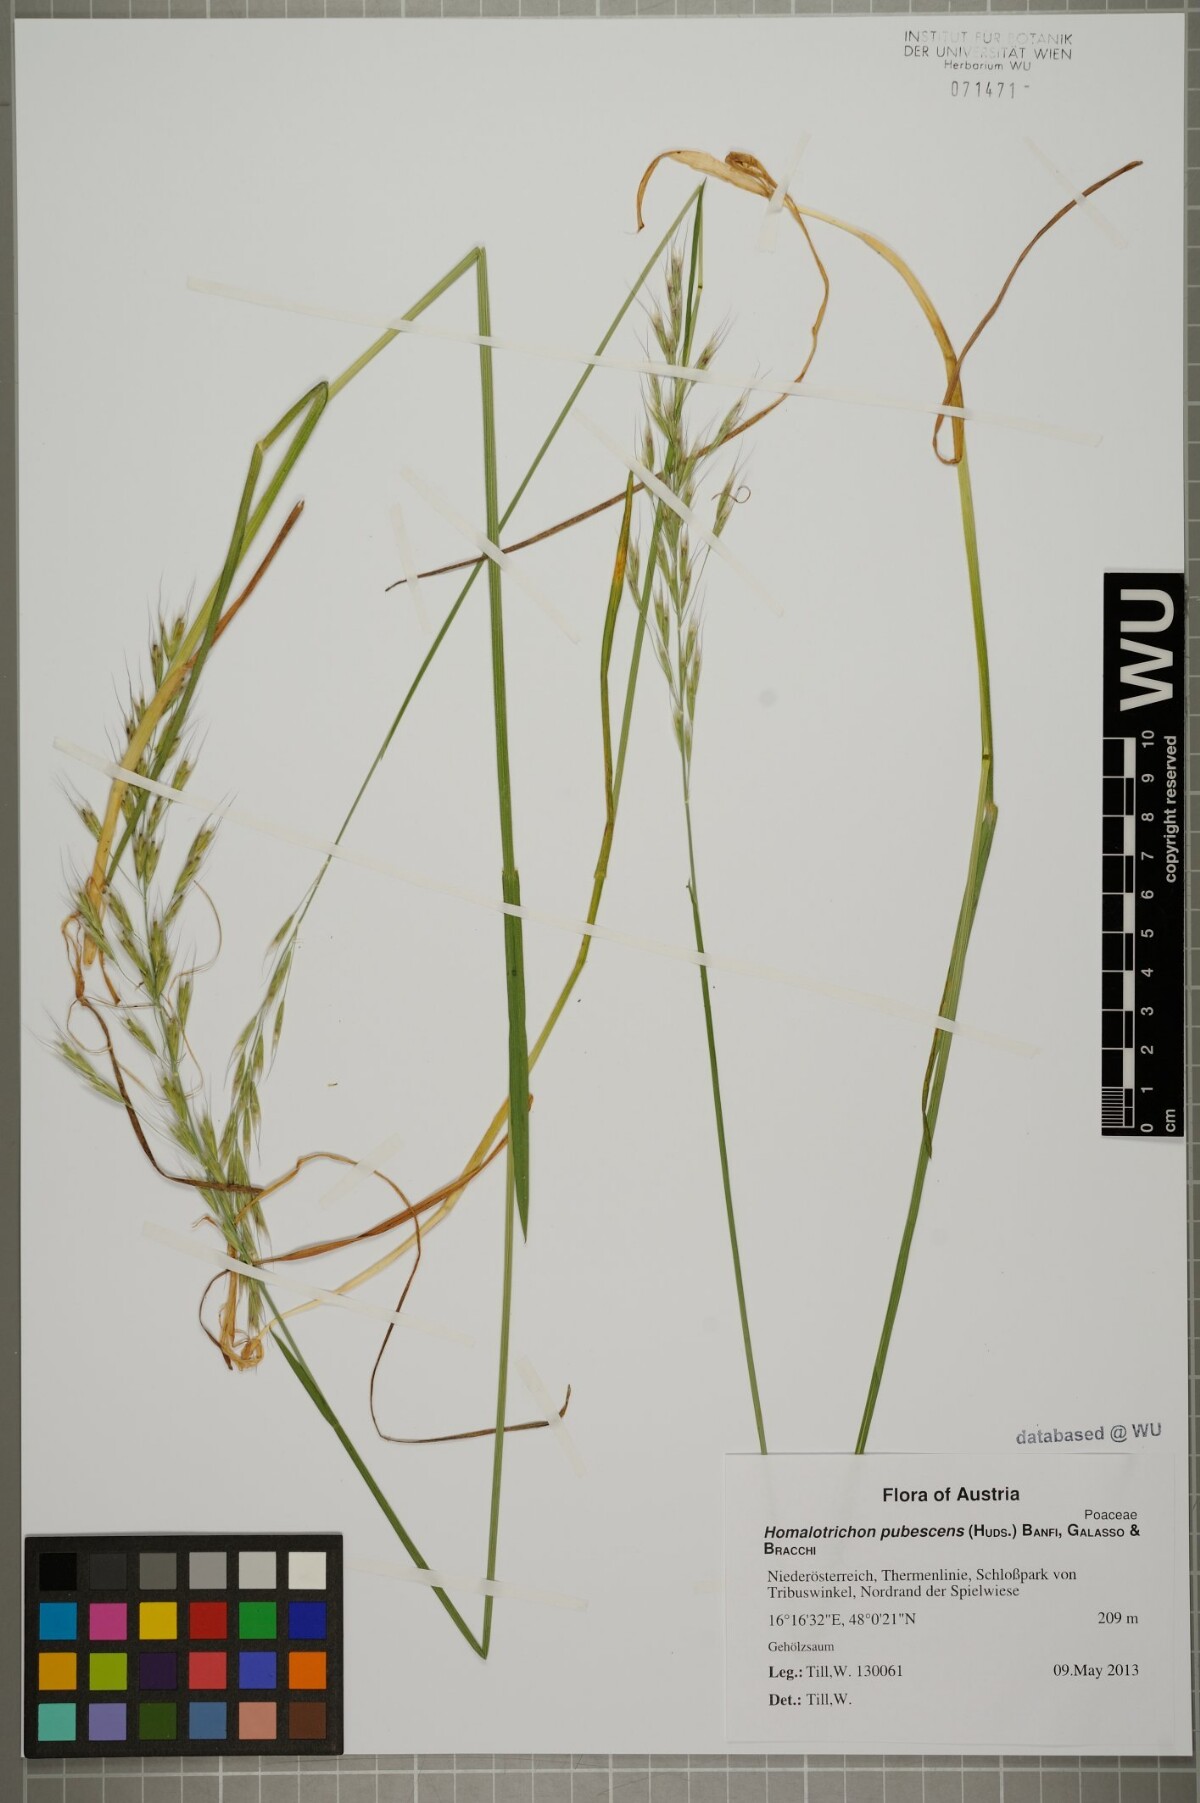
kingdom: Plantae
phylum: Tracheophyta
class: Liliopsida
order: Poales
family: Poaceae
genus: Avenula
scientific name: Avenula pubescens
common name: Downy alpine oatgrass
